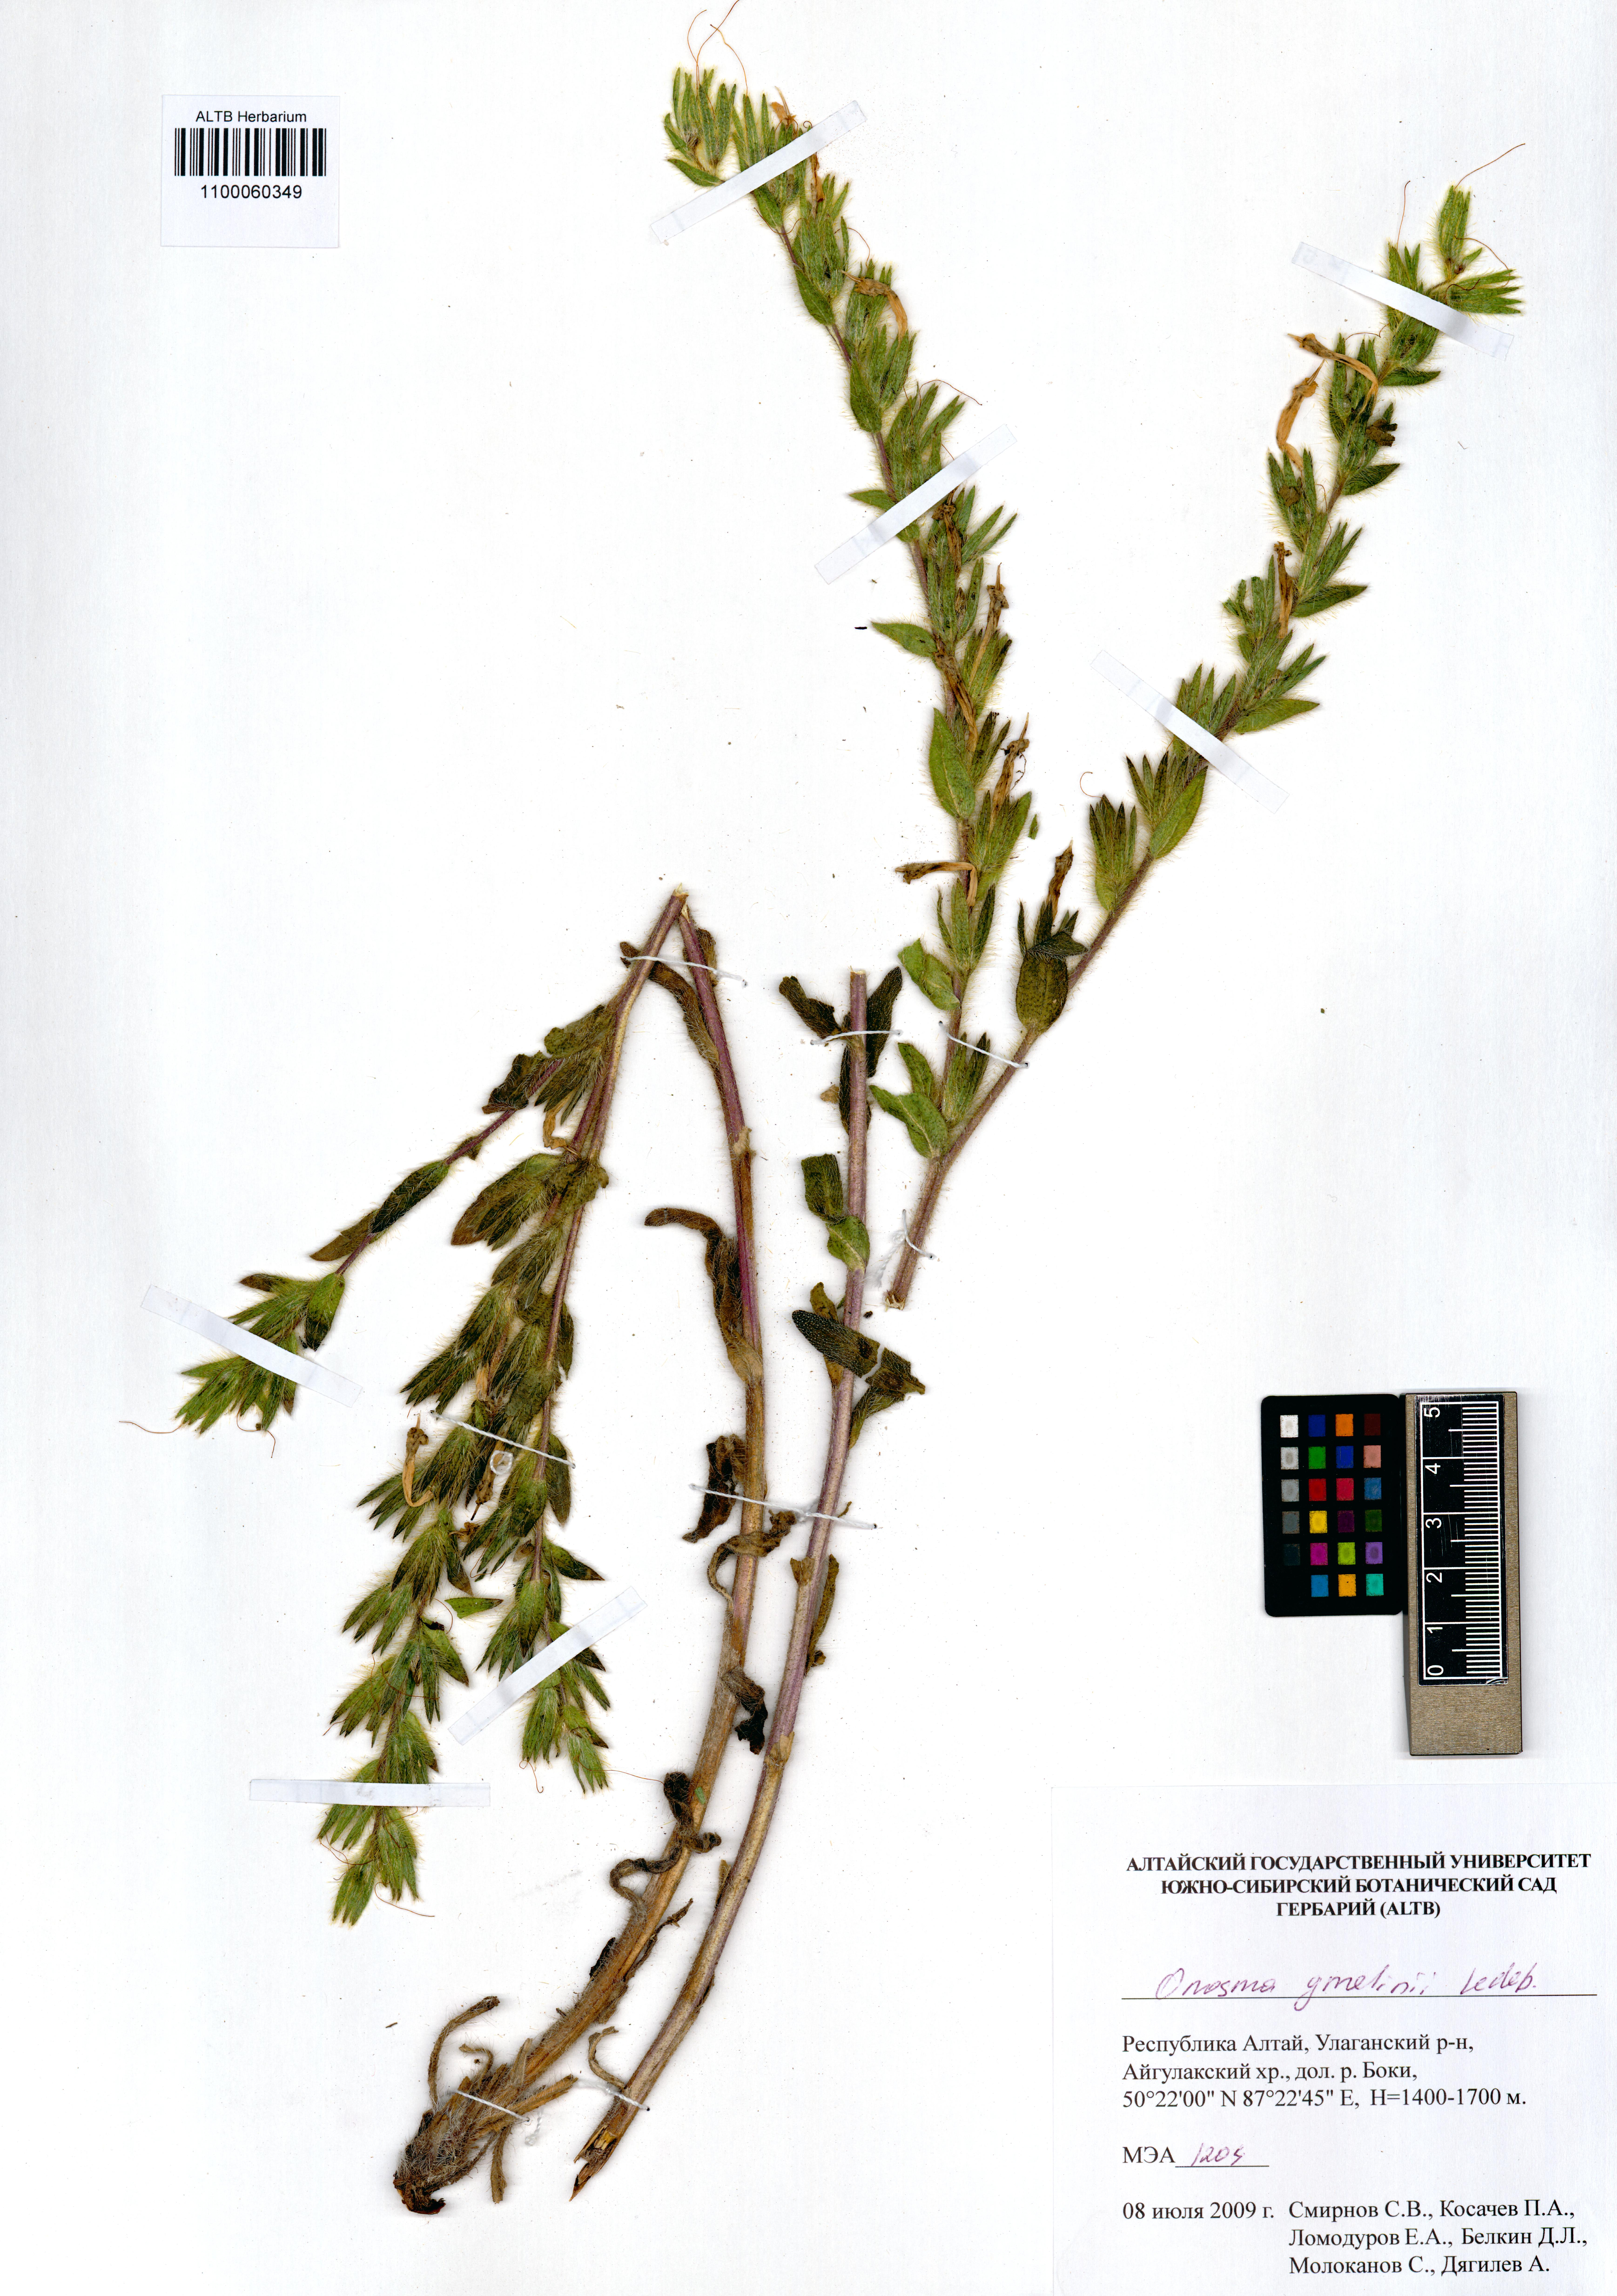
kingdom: Plantae
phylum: Tracheophyta
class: Magnoliopsida
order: Boraginales
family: Boraginaceae
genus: Onosma
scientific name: Onosma gmelinii
